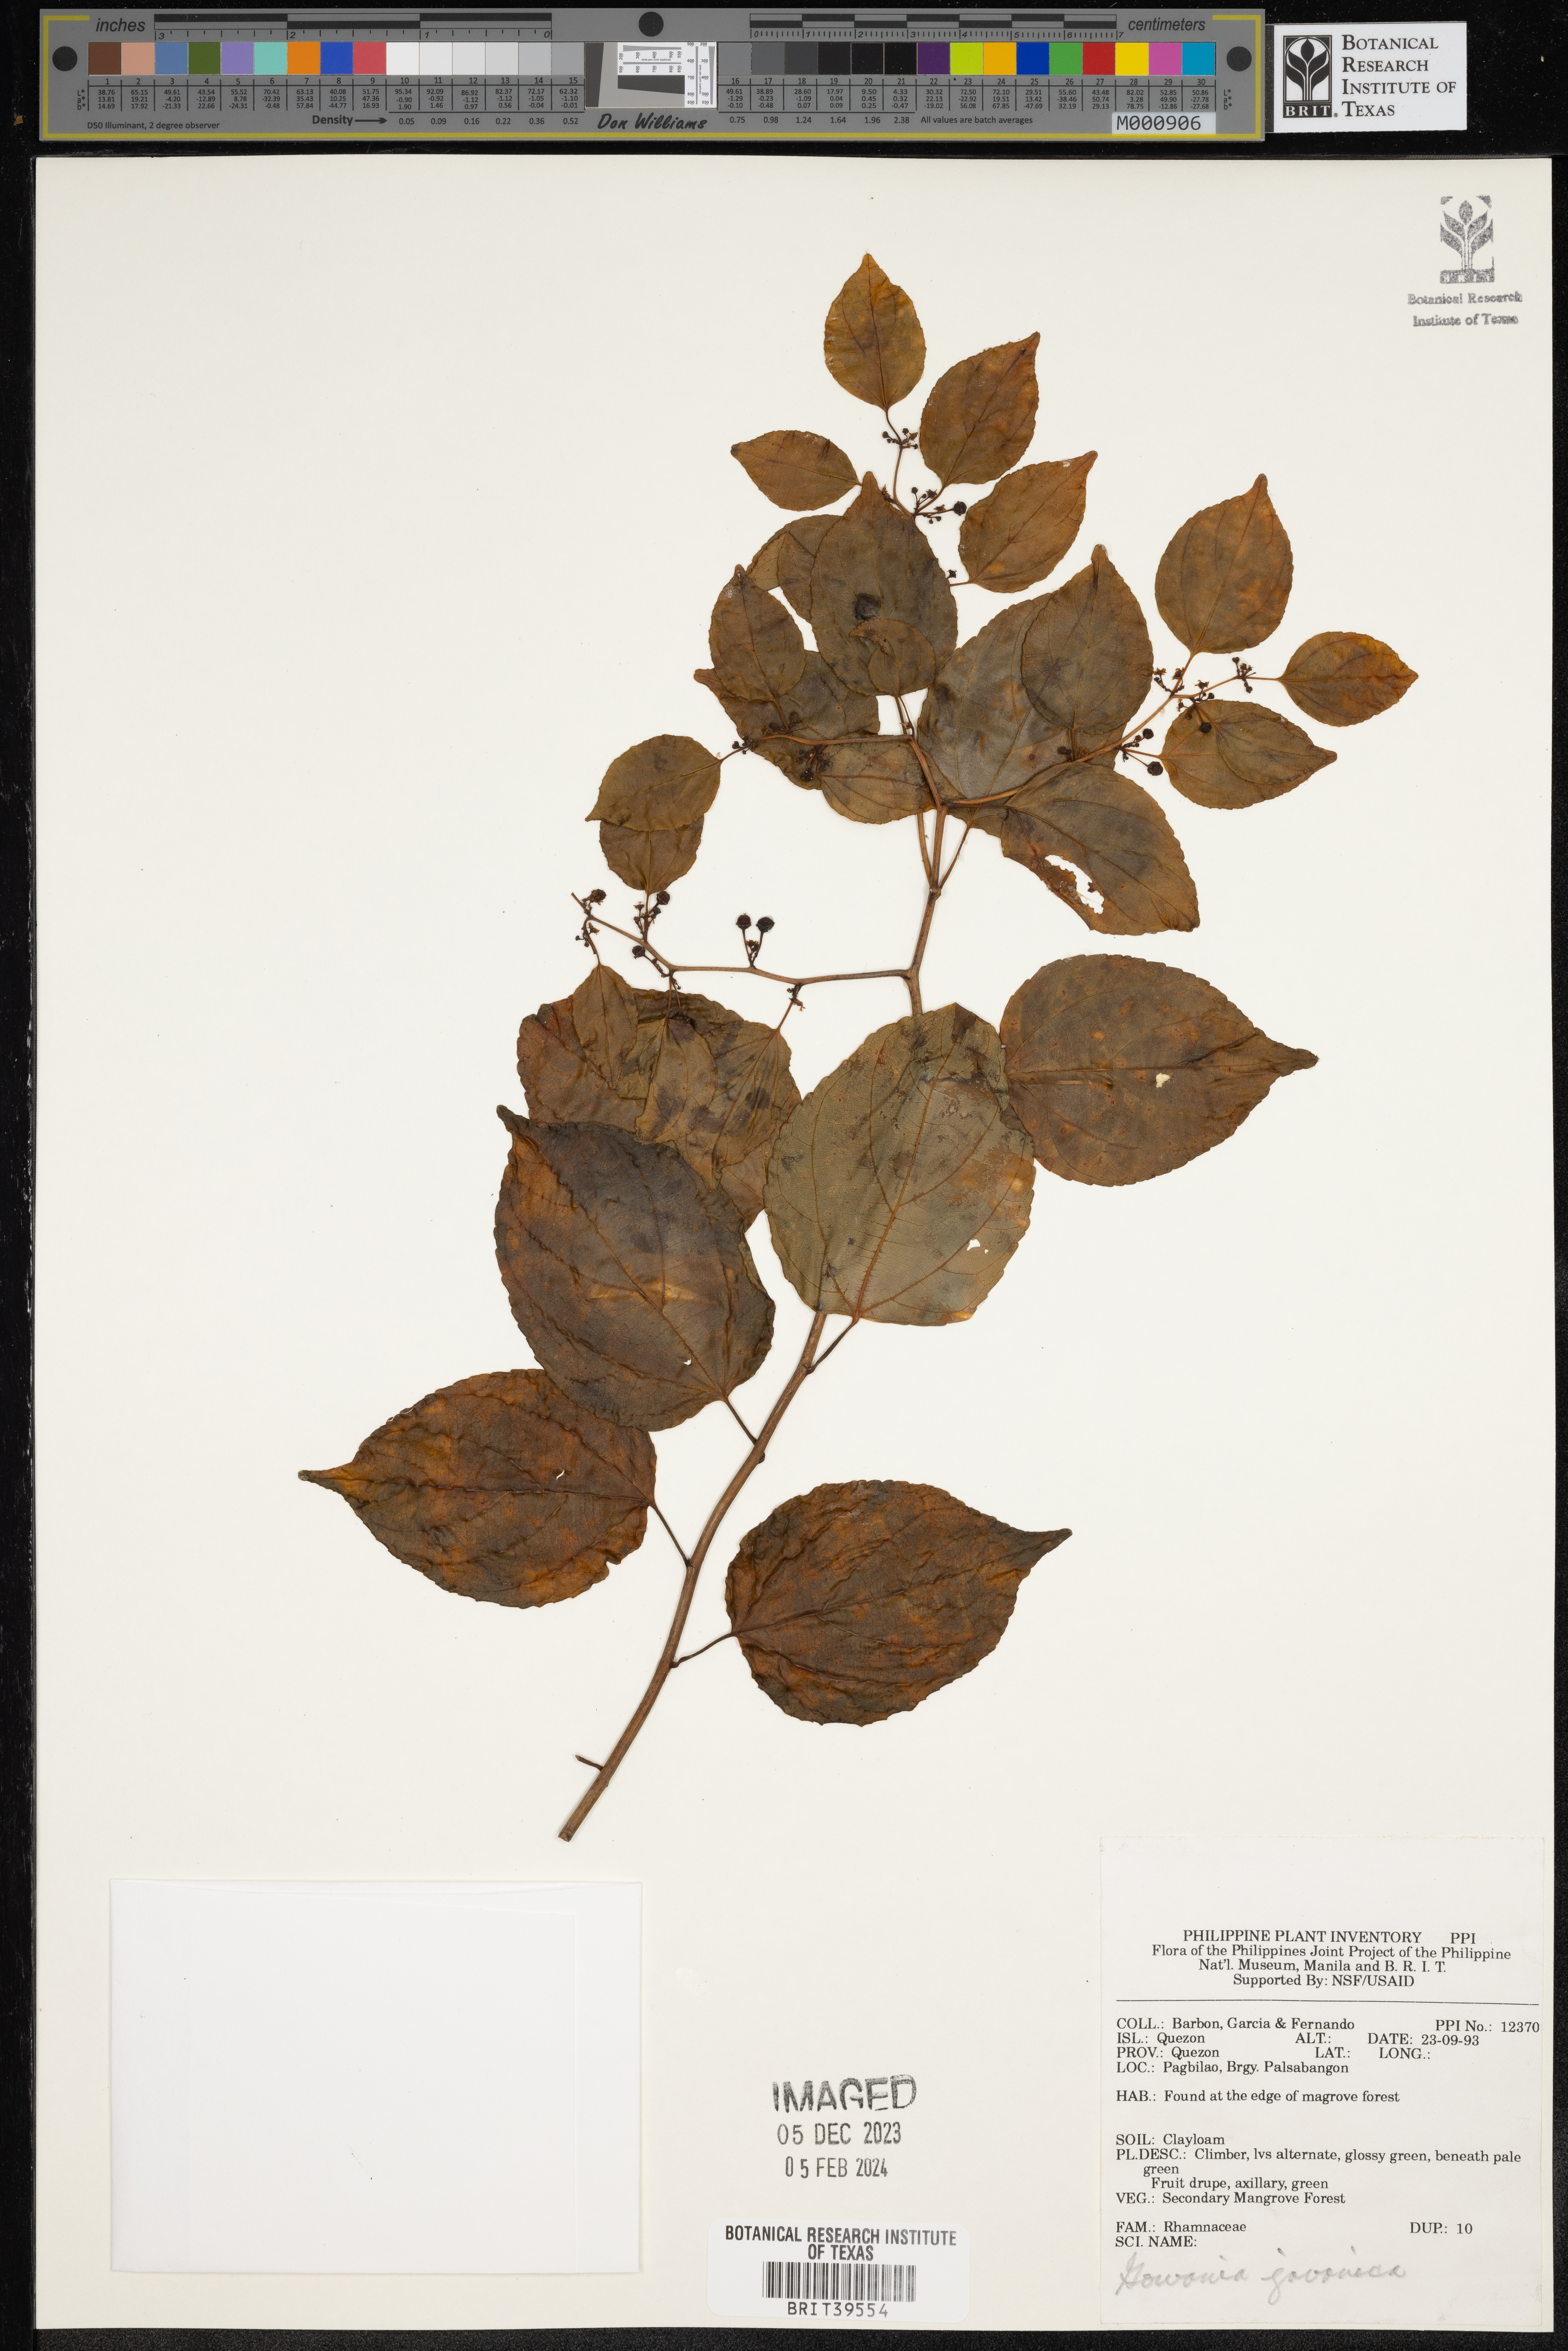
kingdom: Plantae
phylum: Tracheophyta
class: Magnoliopsida
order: Rosales
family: Rhamnaceae
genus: Gouania
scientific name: Gouania obtusifolia
